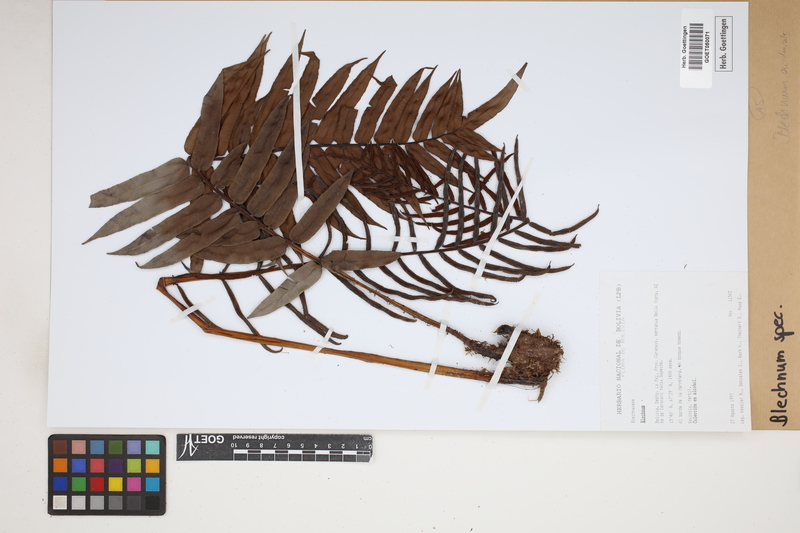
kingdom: Plantae
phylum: Tracheophyta
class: Polypodiopsida
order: Polypodiales
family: Blechnaceae
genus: Blechnum
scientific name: Blechnum
